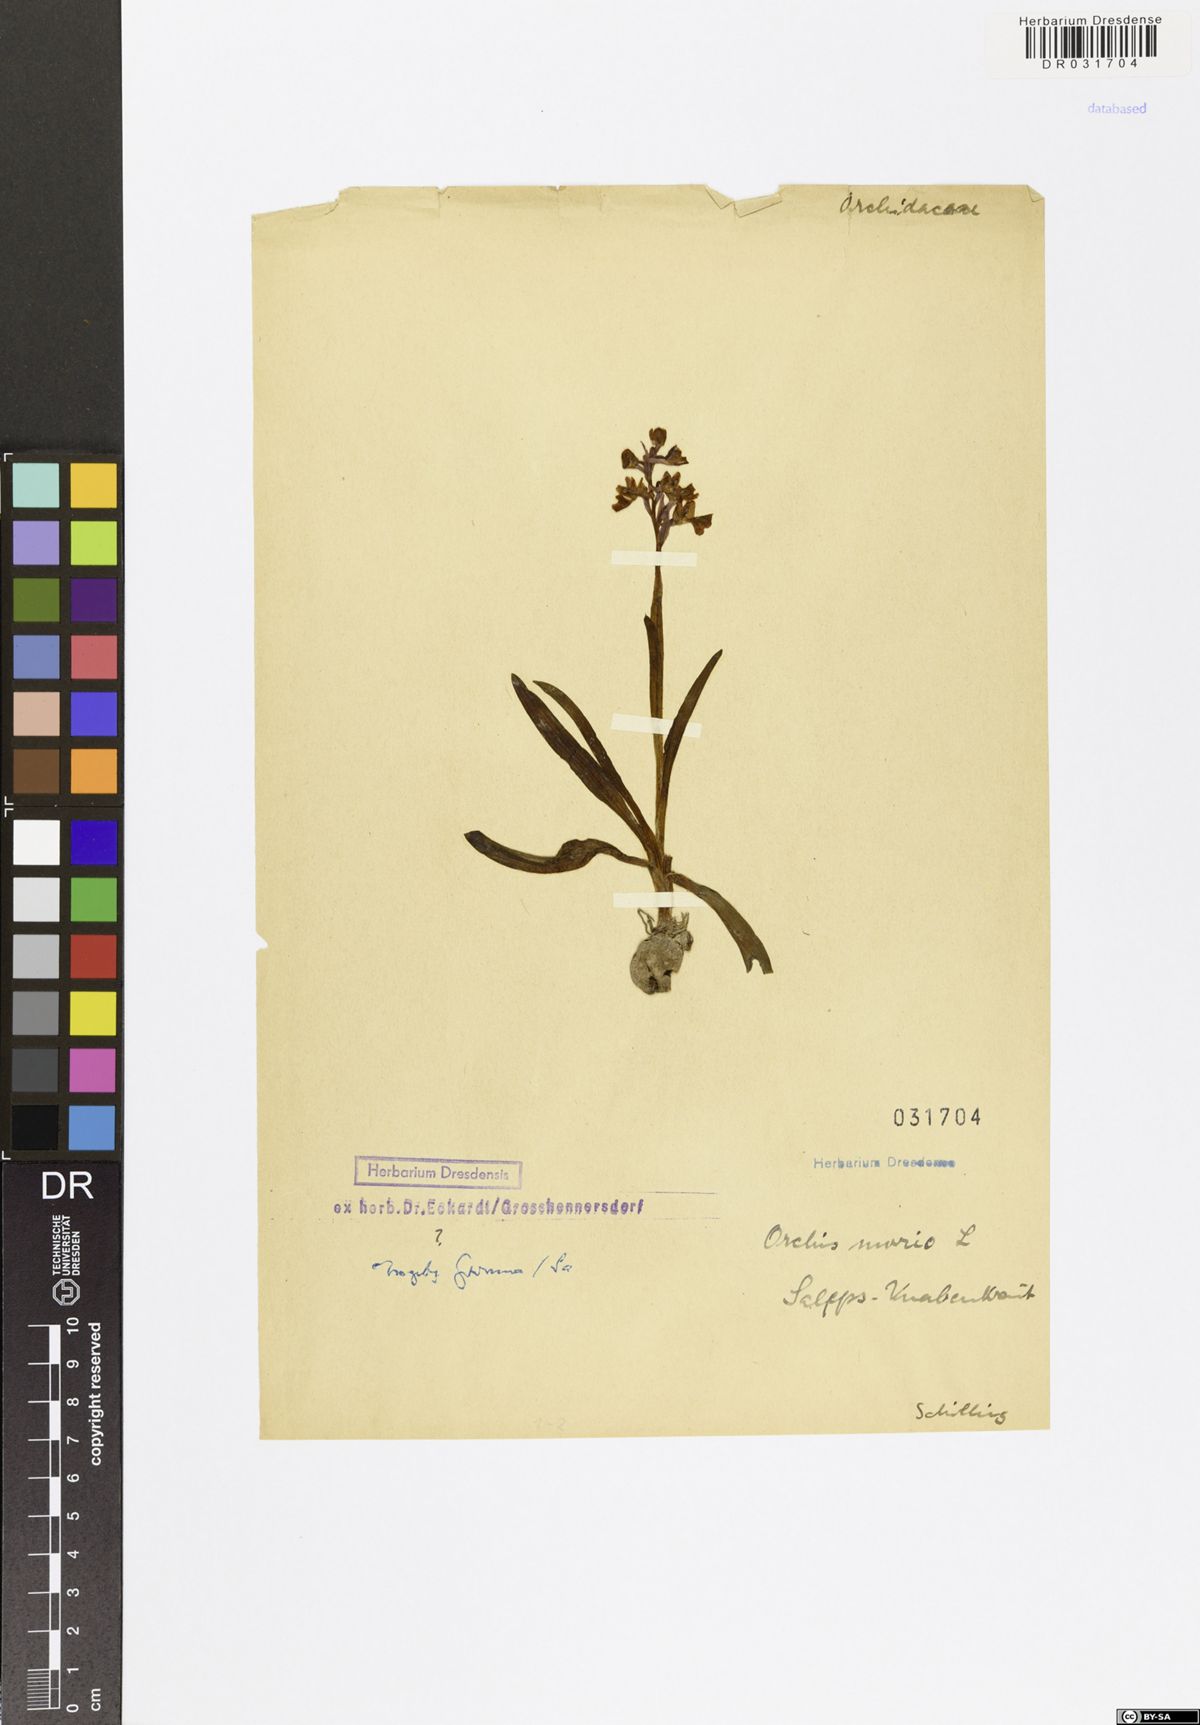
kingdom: Plantae
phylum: Tracheophyta
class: Liliopsida
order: Asparagales
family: Orchidaceae
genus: Anacamptis
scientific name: Anacamptis morio
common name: Green-winged orchid
